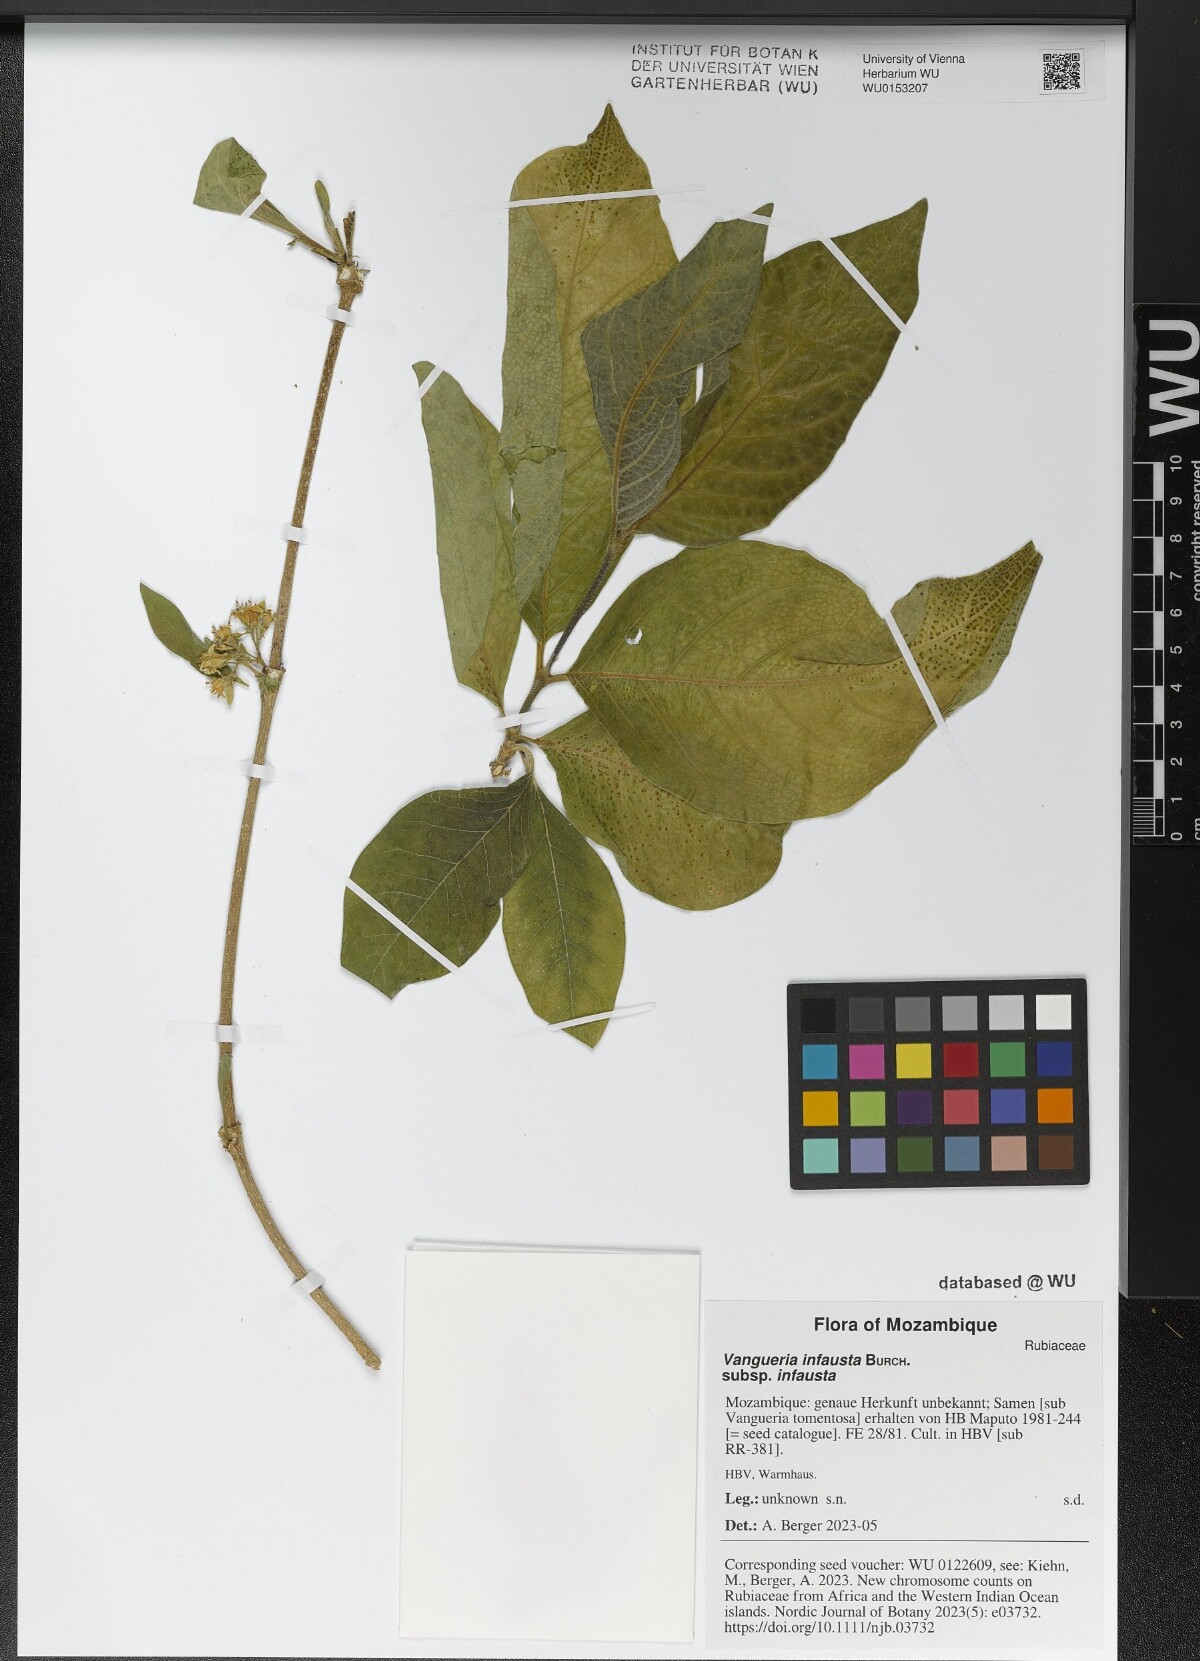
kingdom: Plantae
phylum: Tracheophyta
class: Magnoliopsida
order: Gentianales
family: Rubiaceae
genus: Vangueria
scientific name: Vangueria infausta
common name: Medlar
